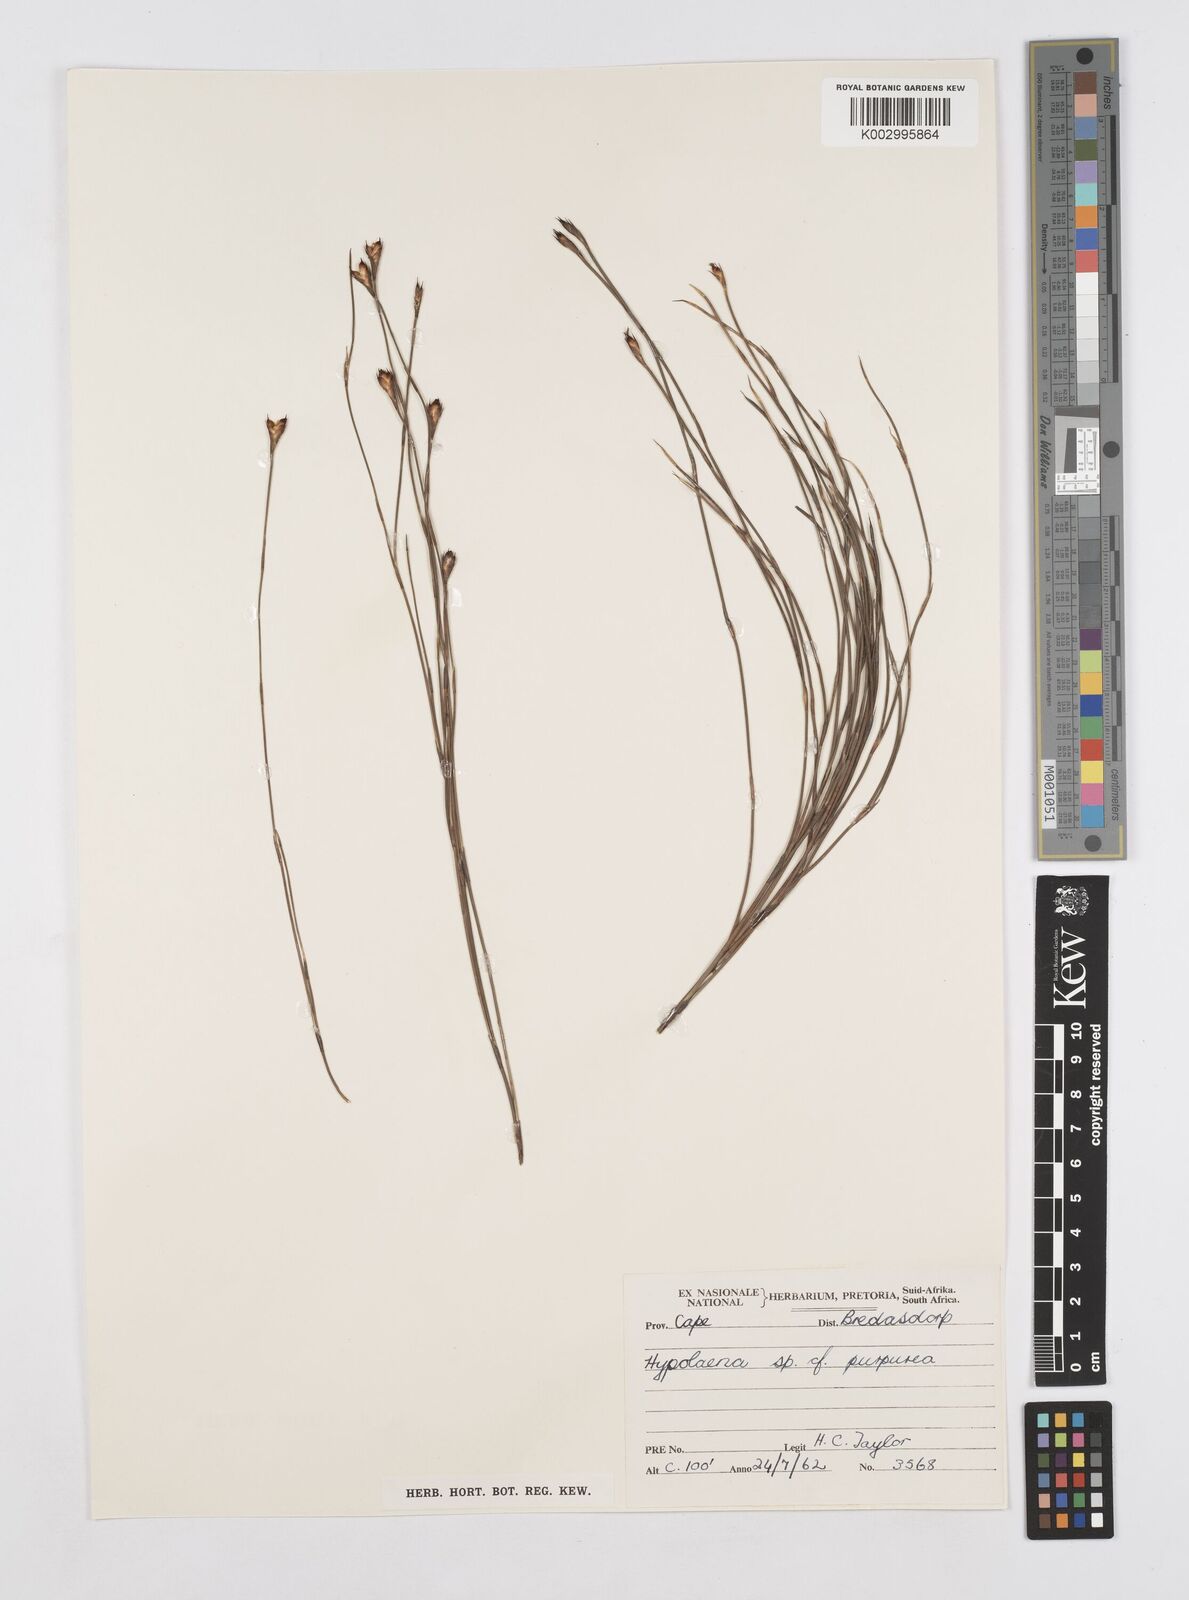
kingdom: Plantae
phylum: Tracheophyta
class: Liliopsida
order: Poales
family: Restionaceae
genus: Mastersiella
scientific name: Mastersiella purpurea
